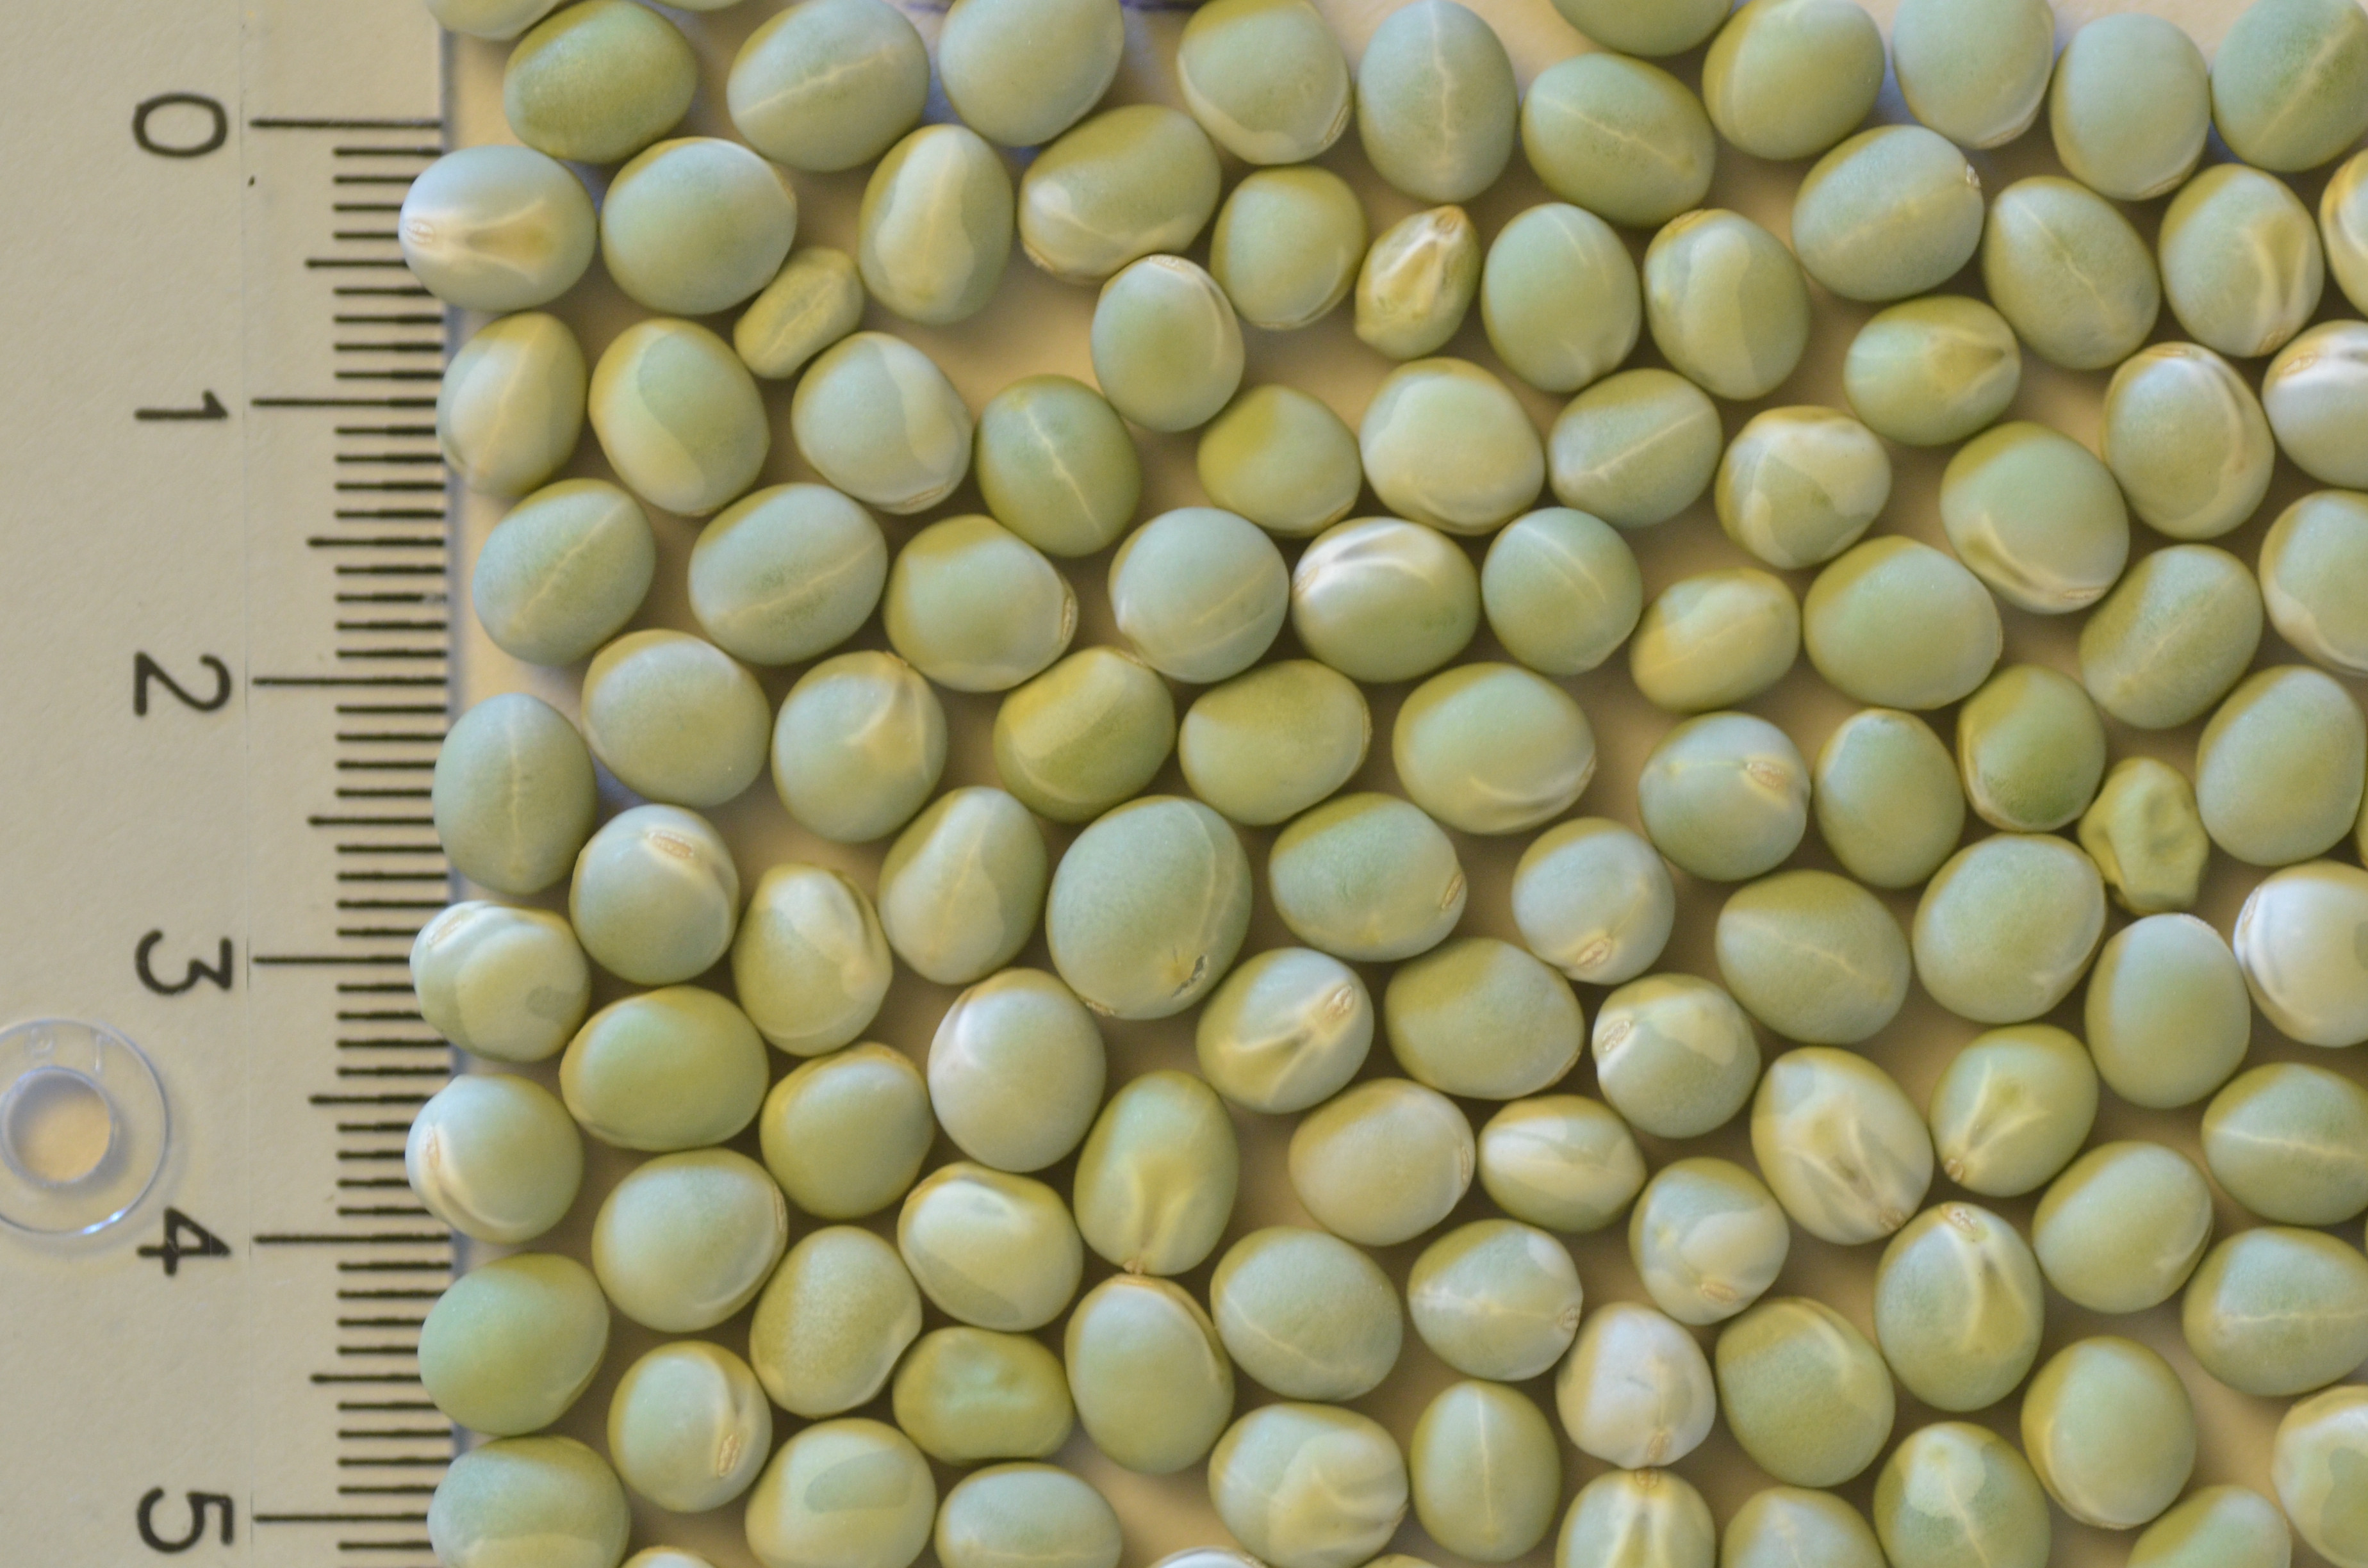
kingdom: Plantae
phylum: Tracheophyta
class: Magnoliopsida
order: Fabales
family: Fabaceae
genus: Lathyrus
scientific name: Lathyrus oleraceus
